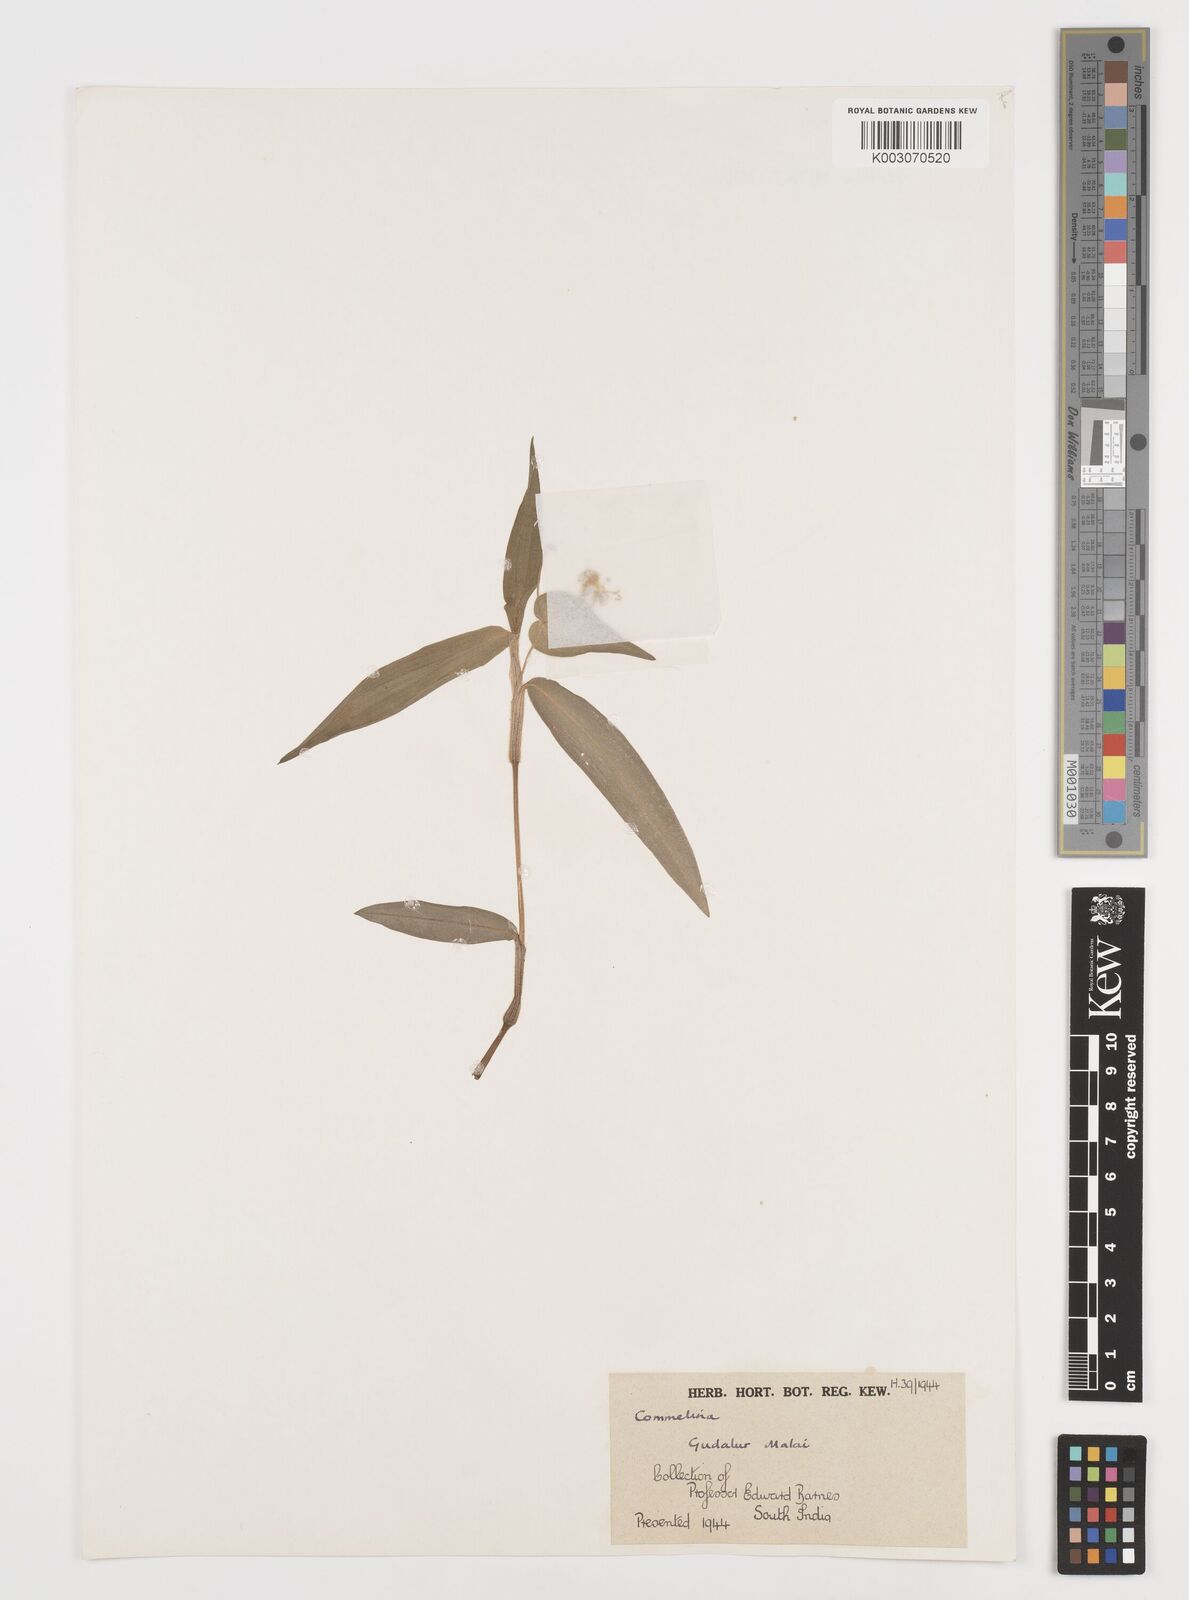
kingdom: Plantae
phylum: Tracheophyta
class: Liliopsida
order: Commelinales
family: Commelinaceae
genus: Commelina
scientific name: Commelina
